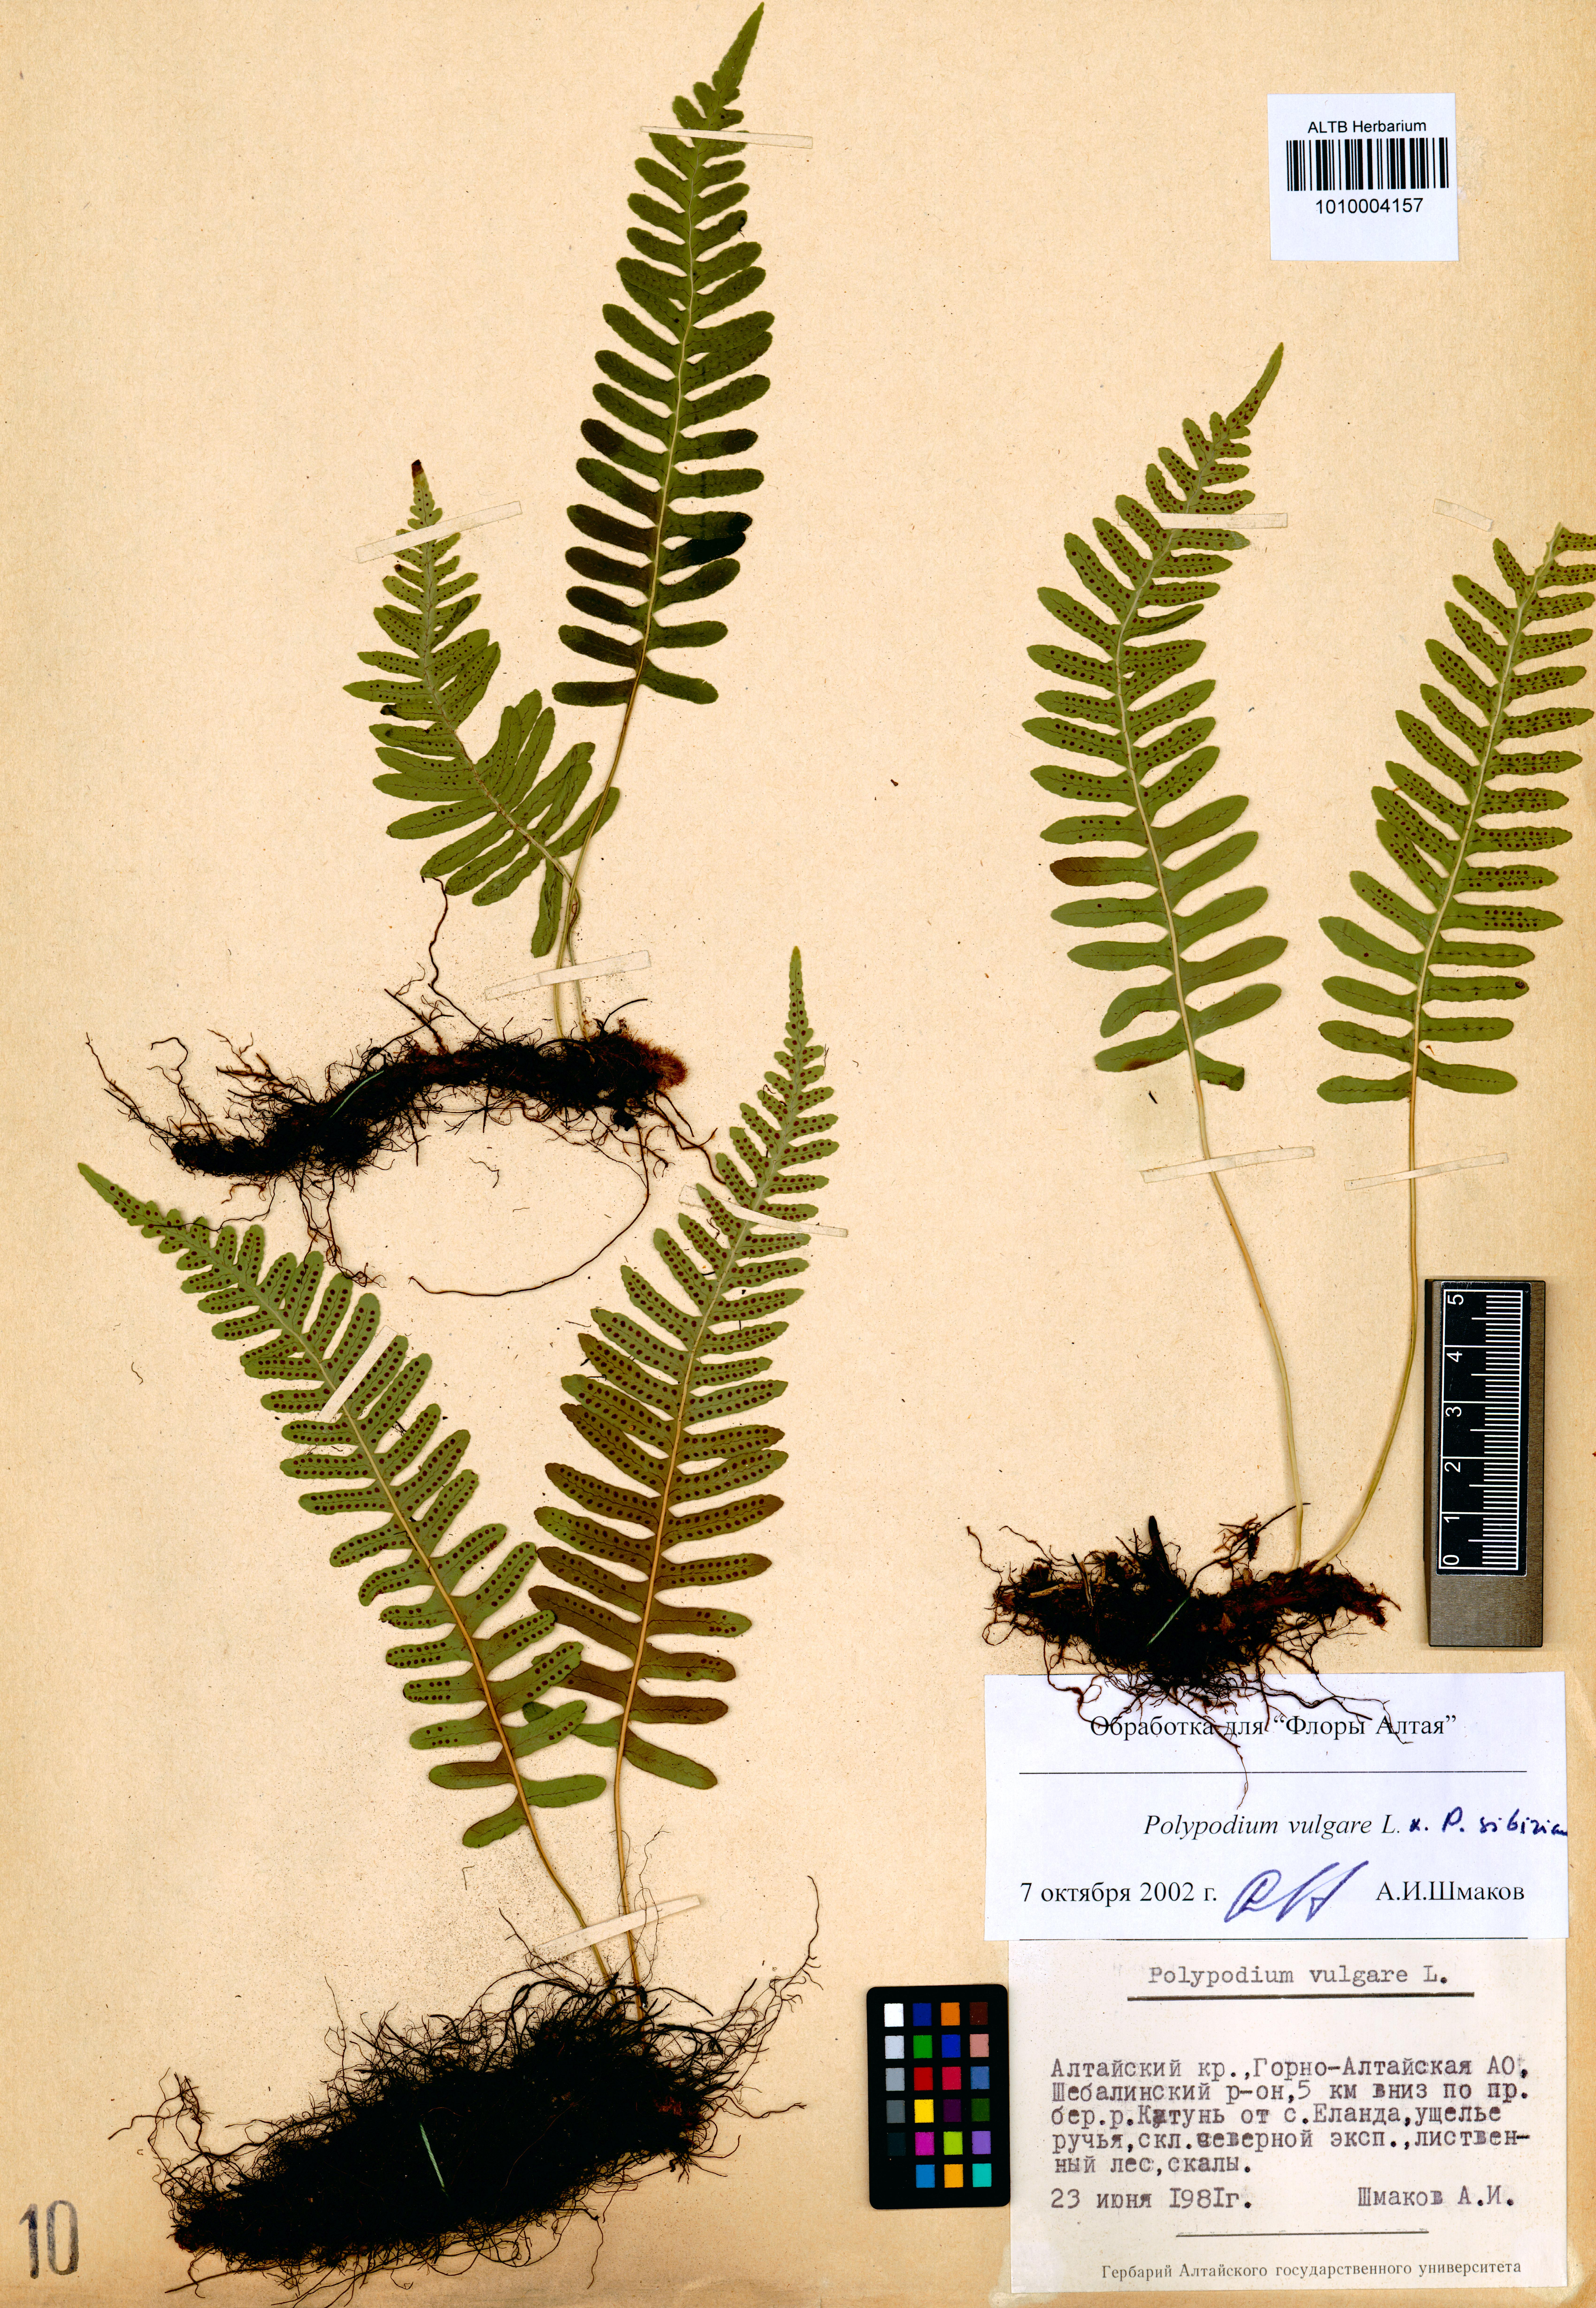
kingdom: Plantae
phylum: Tracheophyta
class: Polypodiopsida
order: Polypodiales
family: Polypodiaceae
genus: Polypodium
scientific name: Polypodium vulgare
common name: Common polypody
